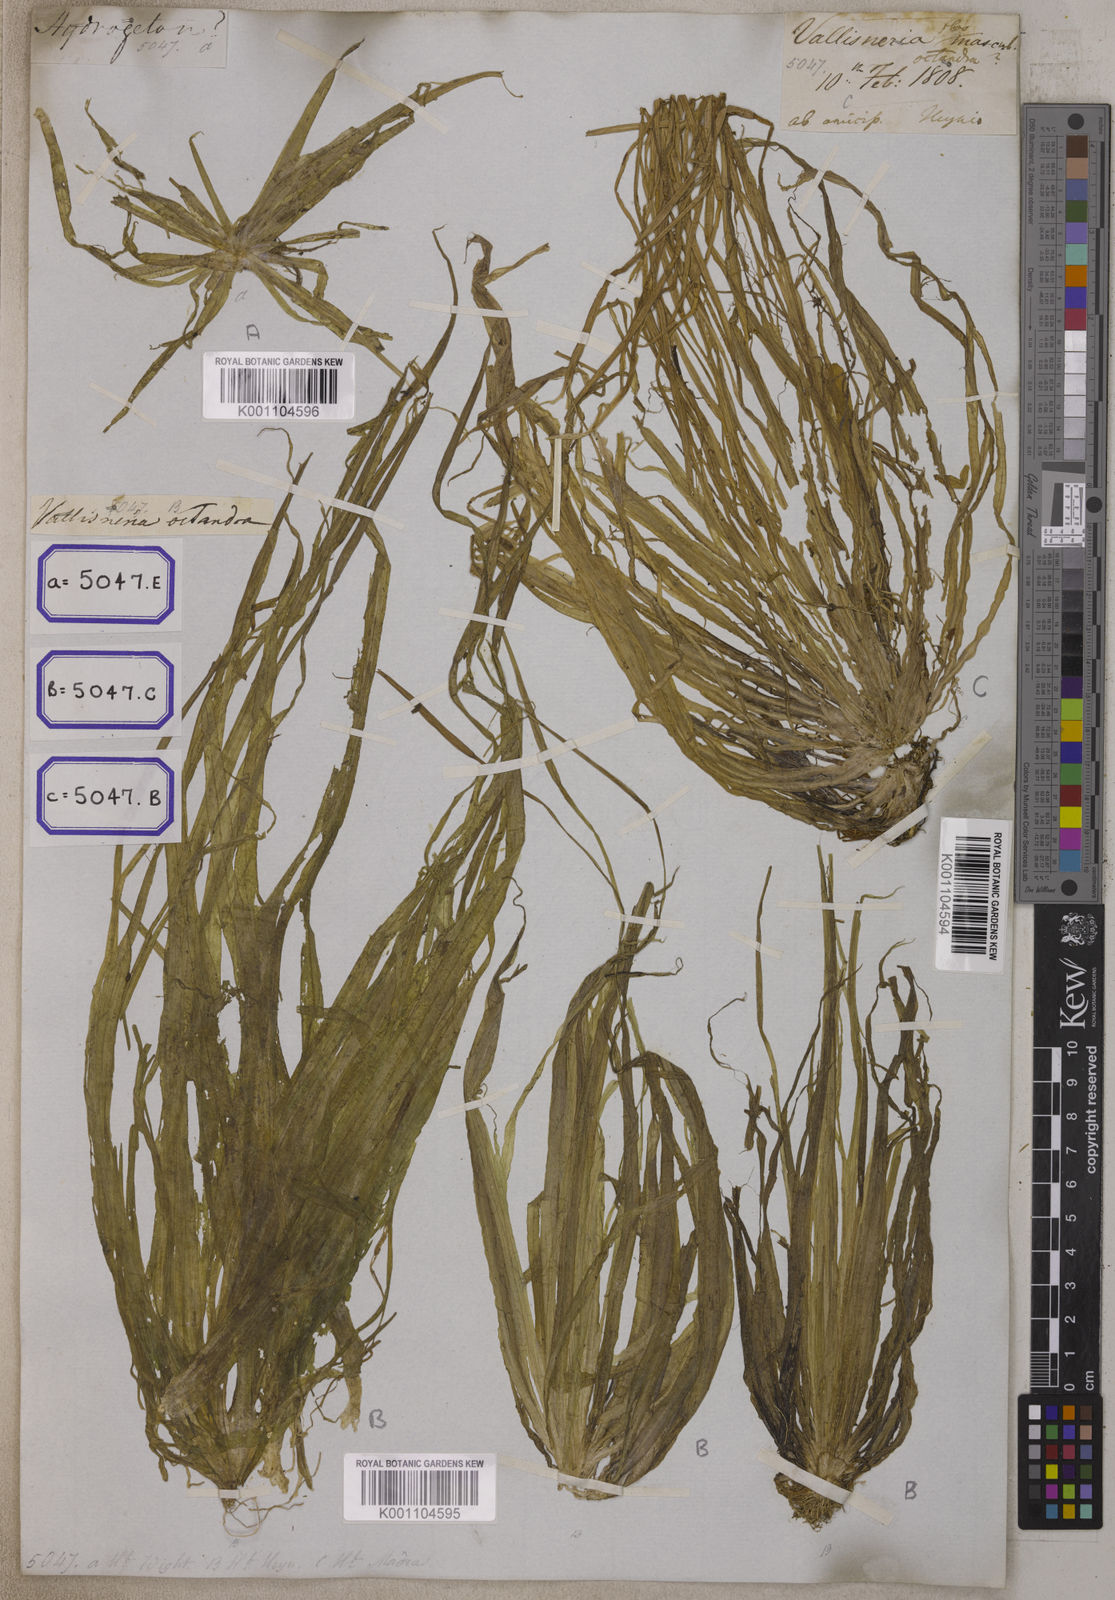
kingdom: Plantae
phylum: Tracheophyta
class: Liliopsida
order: Alismatales
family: Hydrocharitaceae
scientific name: Hydrocharitaceae
